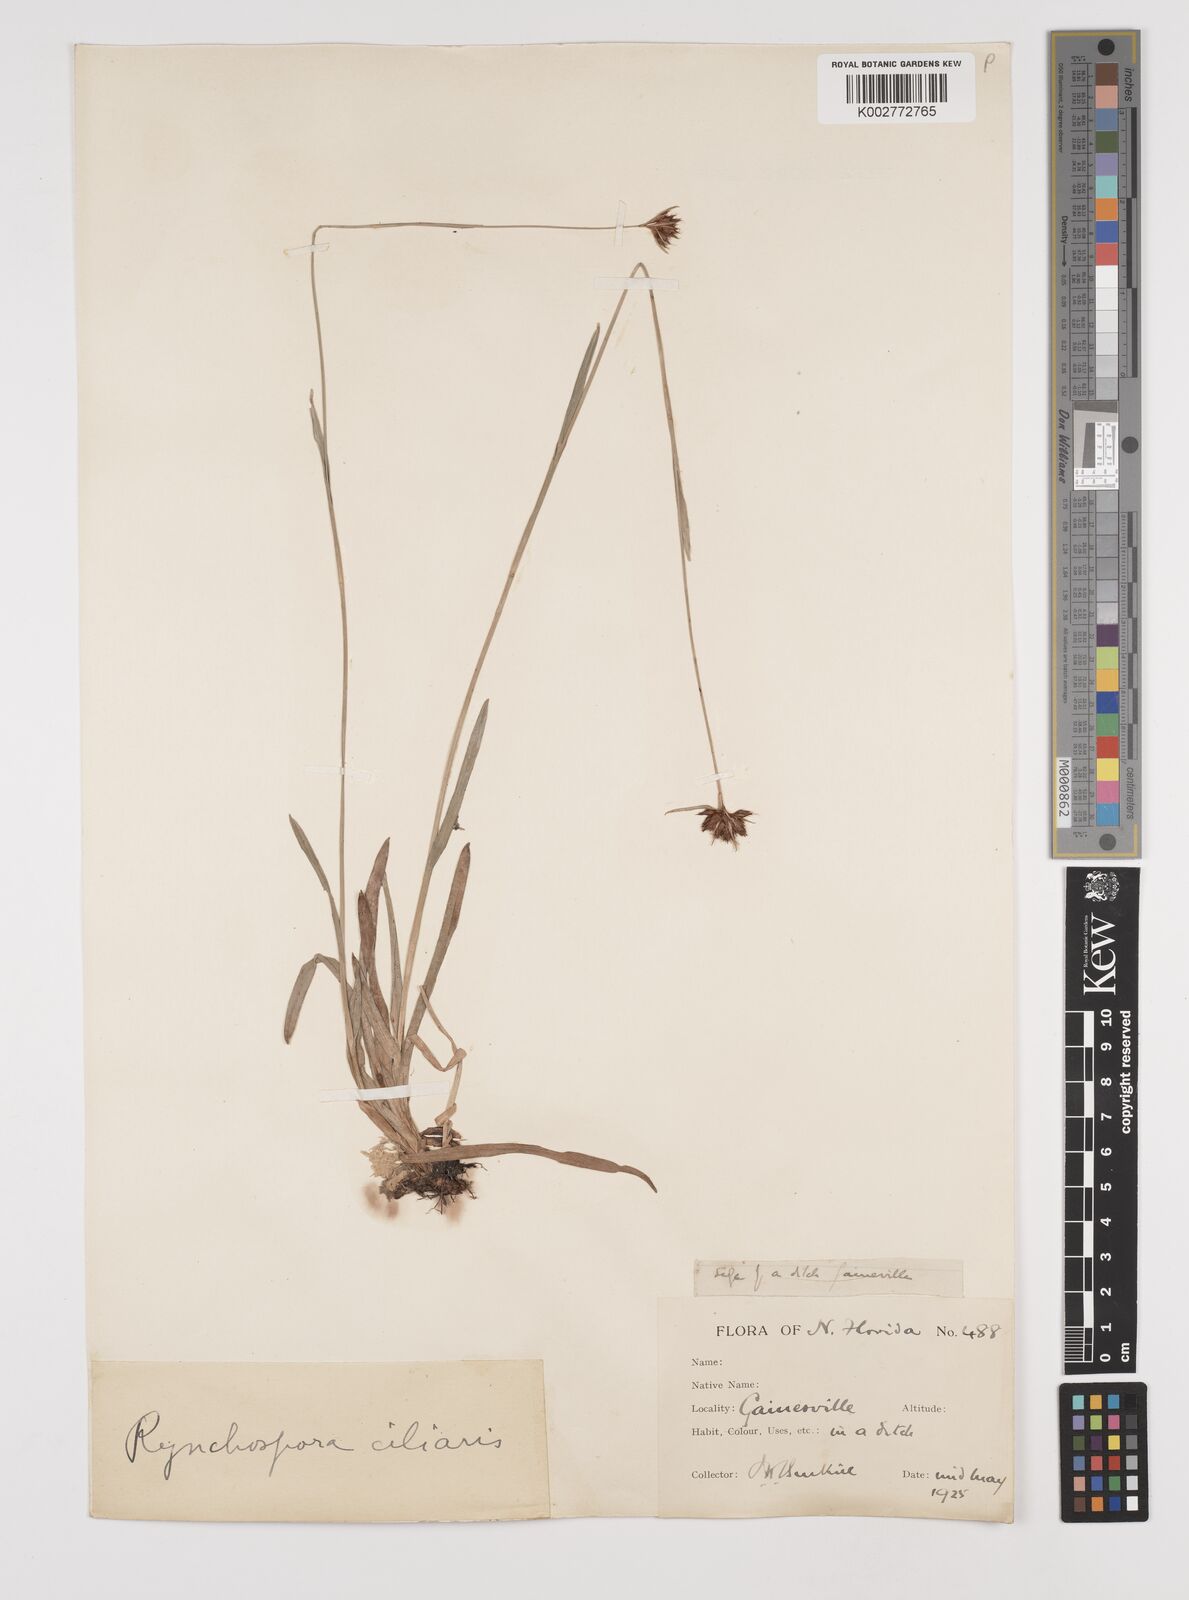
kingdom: Plantae
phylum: Tracheophyta
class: Liliopsida
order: Poales
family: Cyperaceae
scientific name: Cyperaceae
